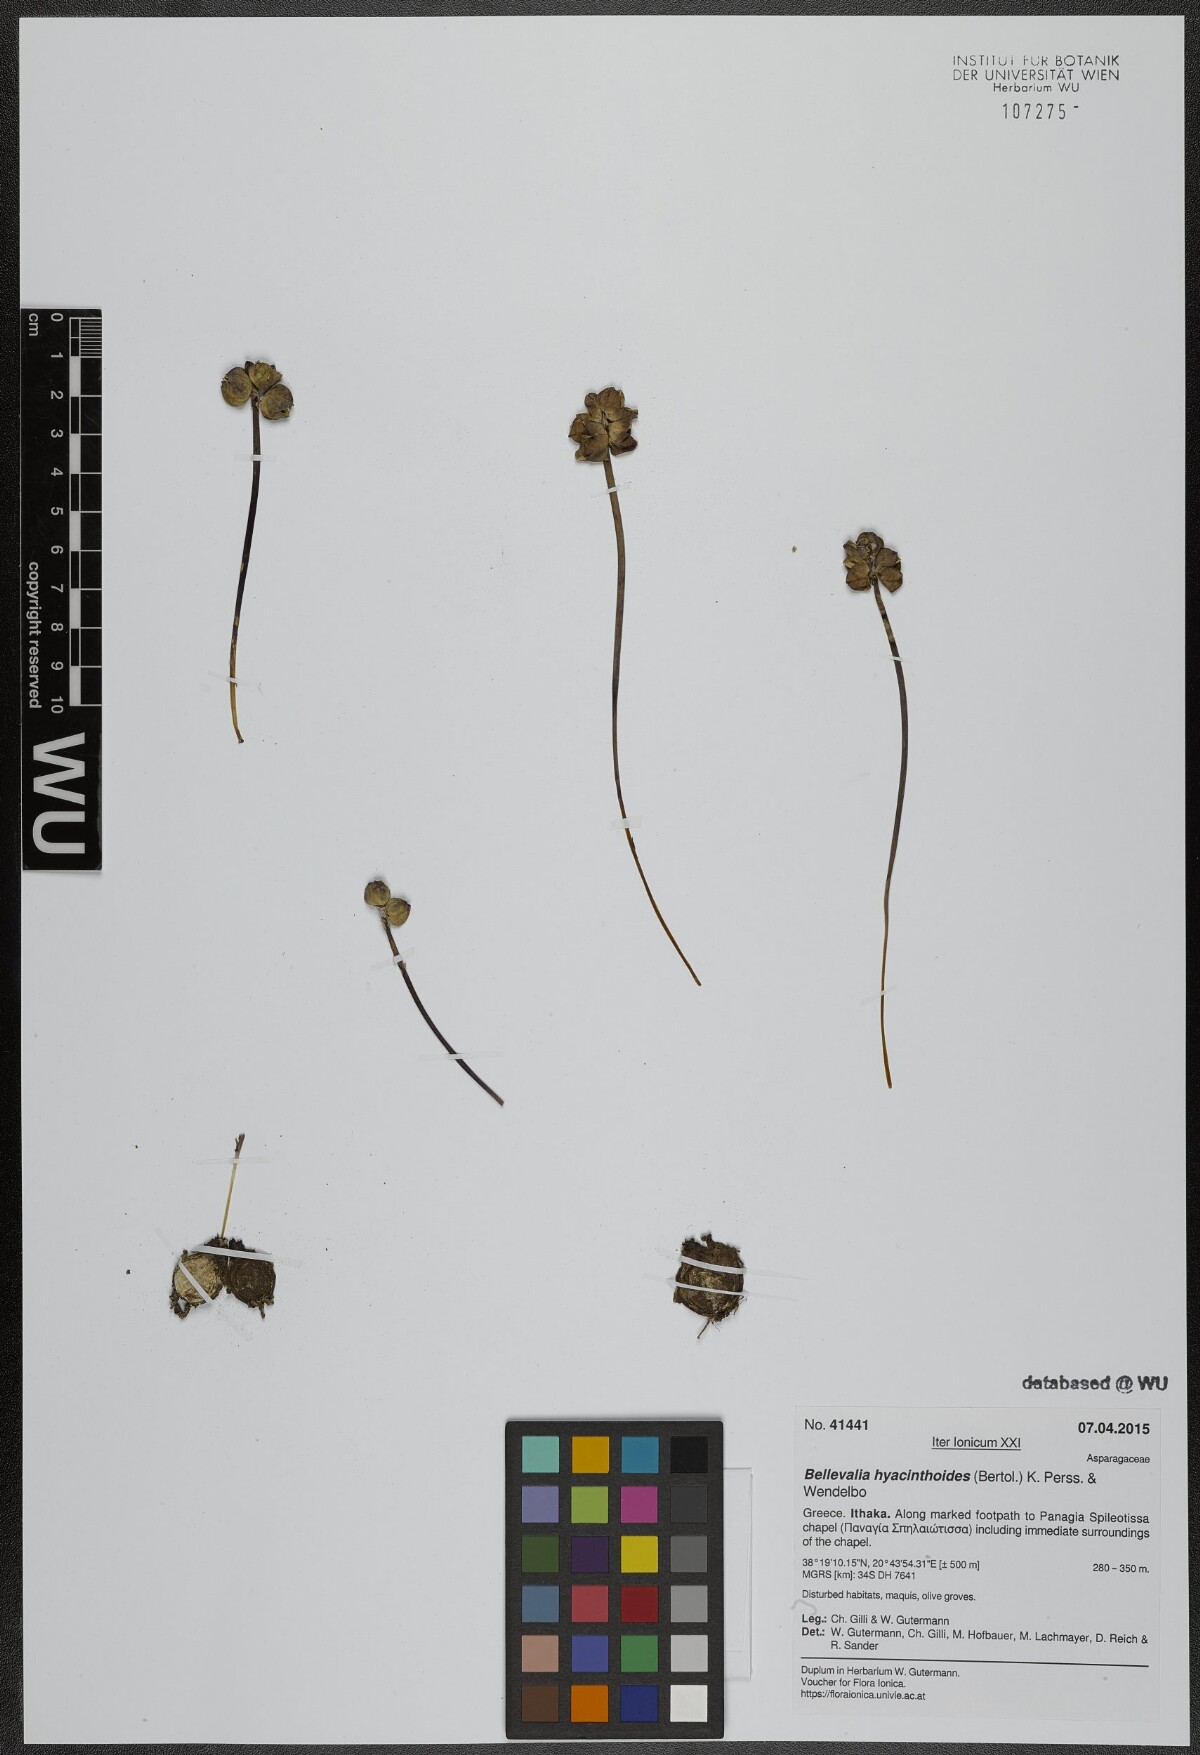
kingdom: Plantae
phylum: Tracheophyta
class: Liliopsida
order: Asparagales
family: Asparagaceae
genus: Bellevalia
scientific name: Bellevalia hyacinthoides
